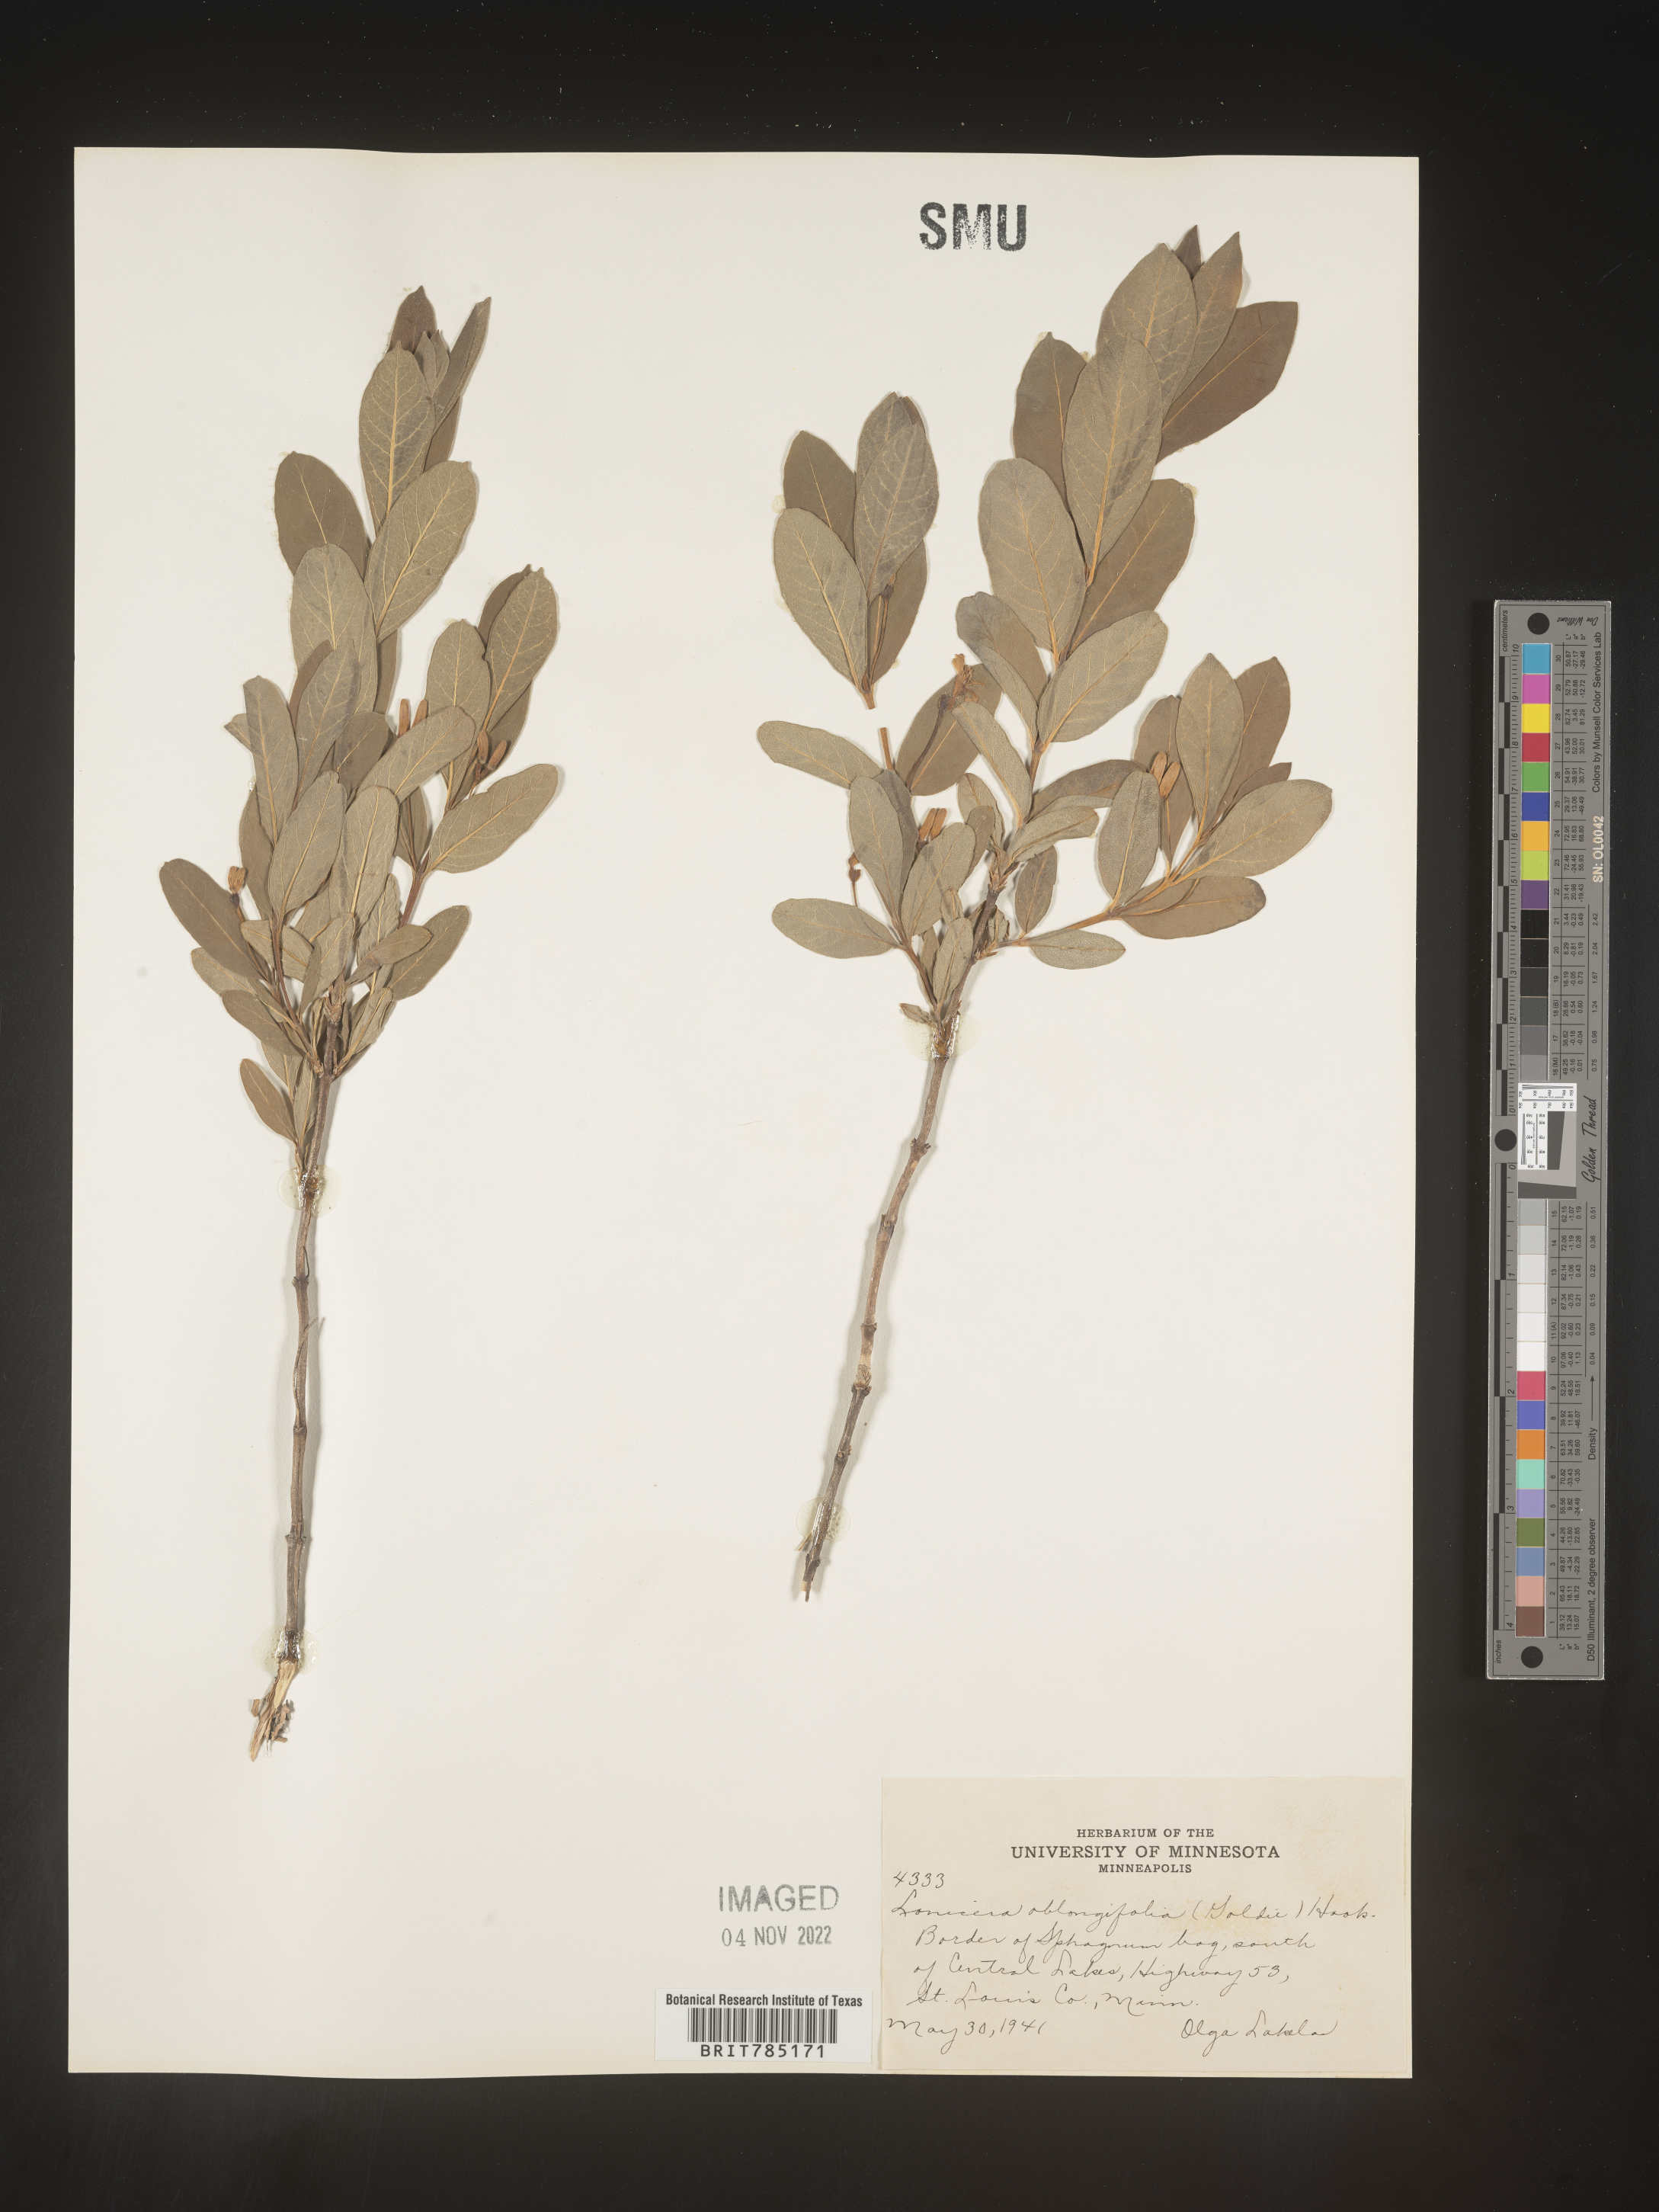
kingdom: Plantae
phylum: Tracheophyta
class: Magnoliopsida
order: Dipsacales
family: Caprifoliaceae
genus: Lonicera
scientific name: Lonicera
